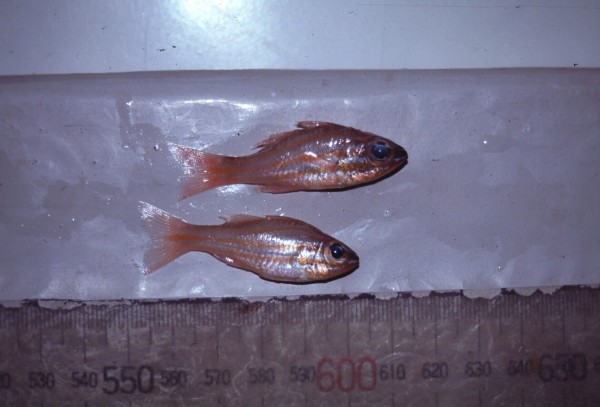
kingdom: Animalia
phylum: Chordata
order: Perciformes
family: Apogonidae
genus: Ostorhinchus
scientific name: Ostorhinchus cyanosoma
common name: Yellow-striped cardinalfish
